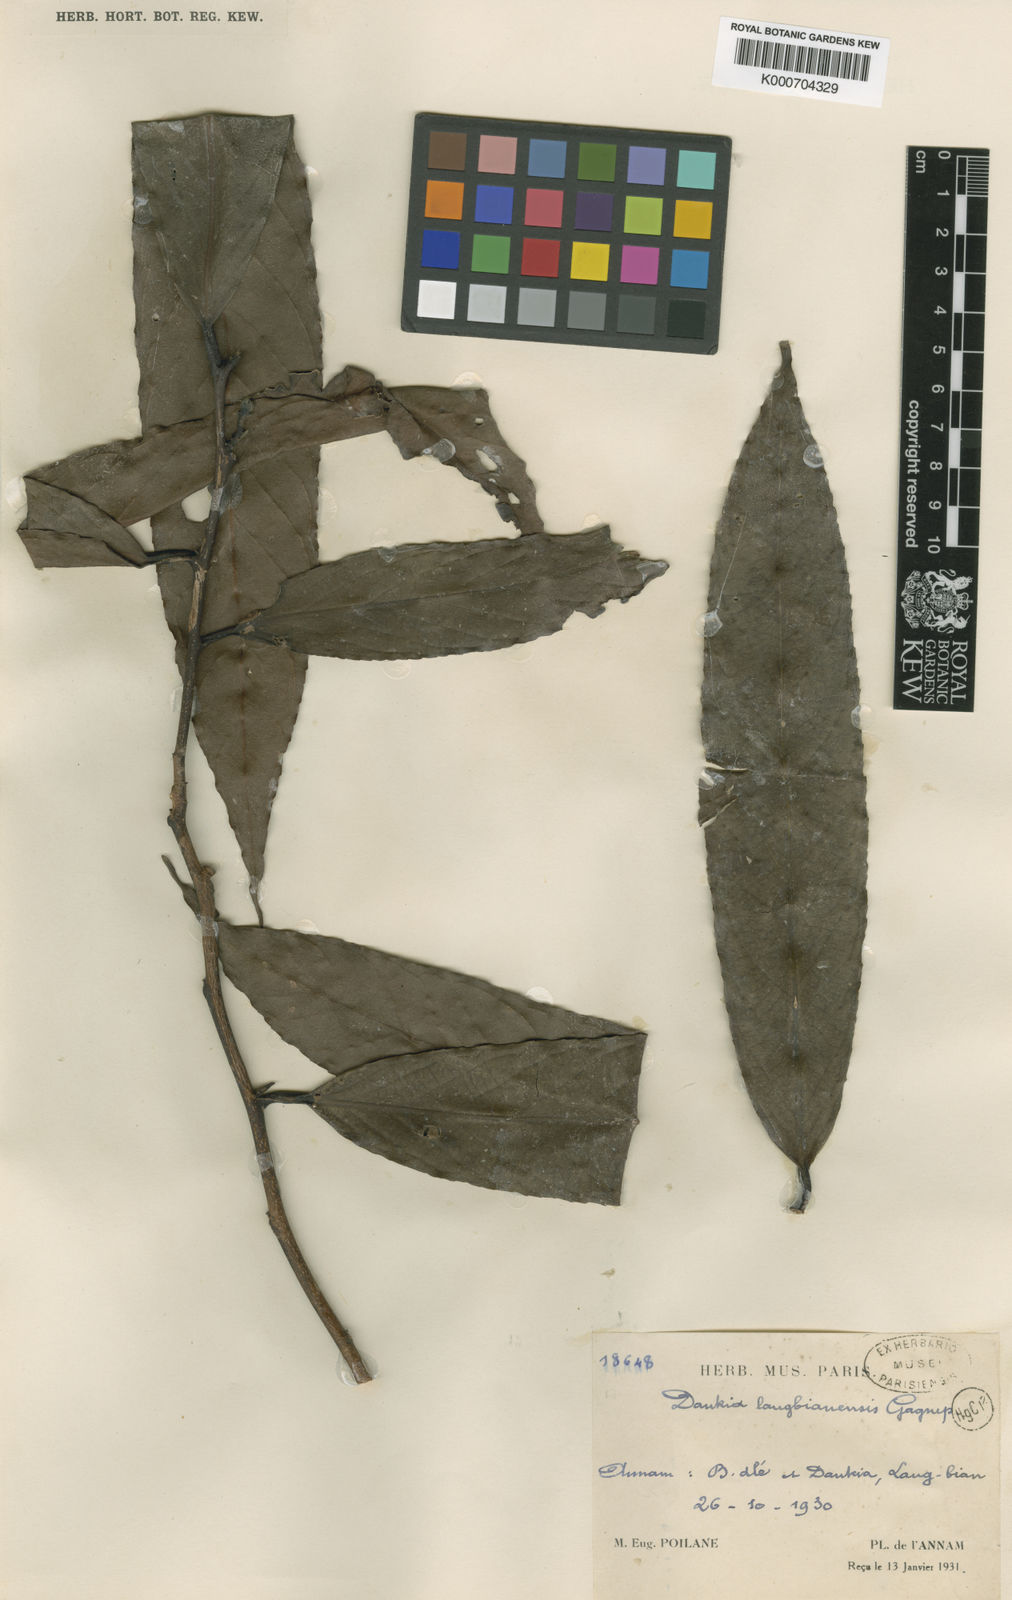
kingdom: Plantae
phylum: Tracheophyta
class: Magnoliopsida
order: Ericales
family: Theaceae
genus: Camellia
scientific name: Camellia langbianensis
